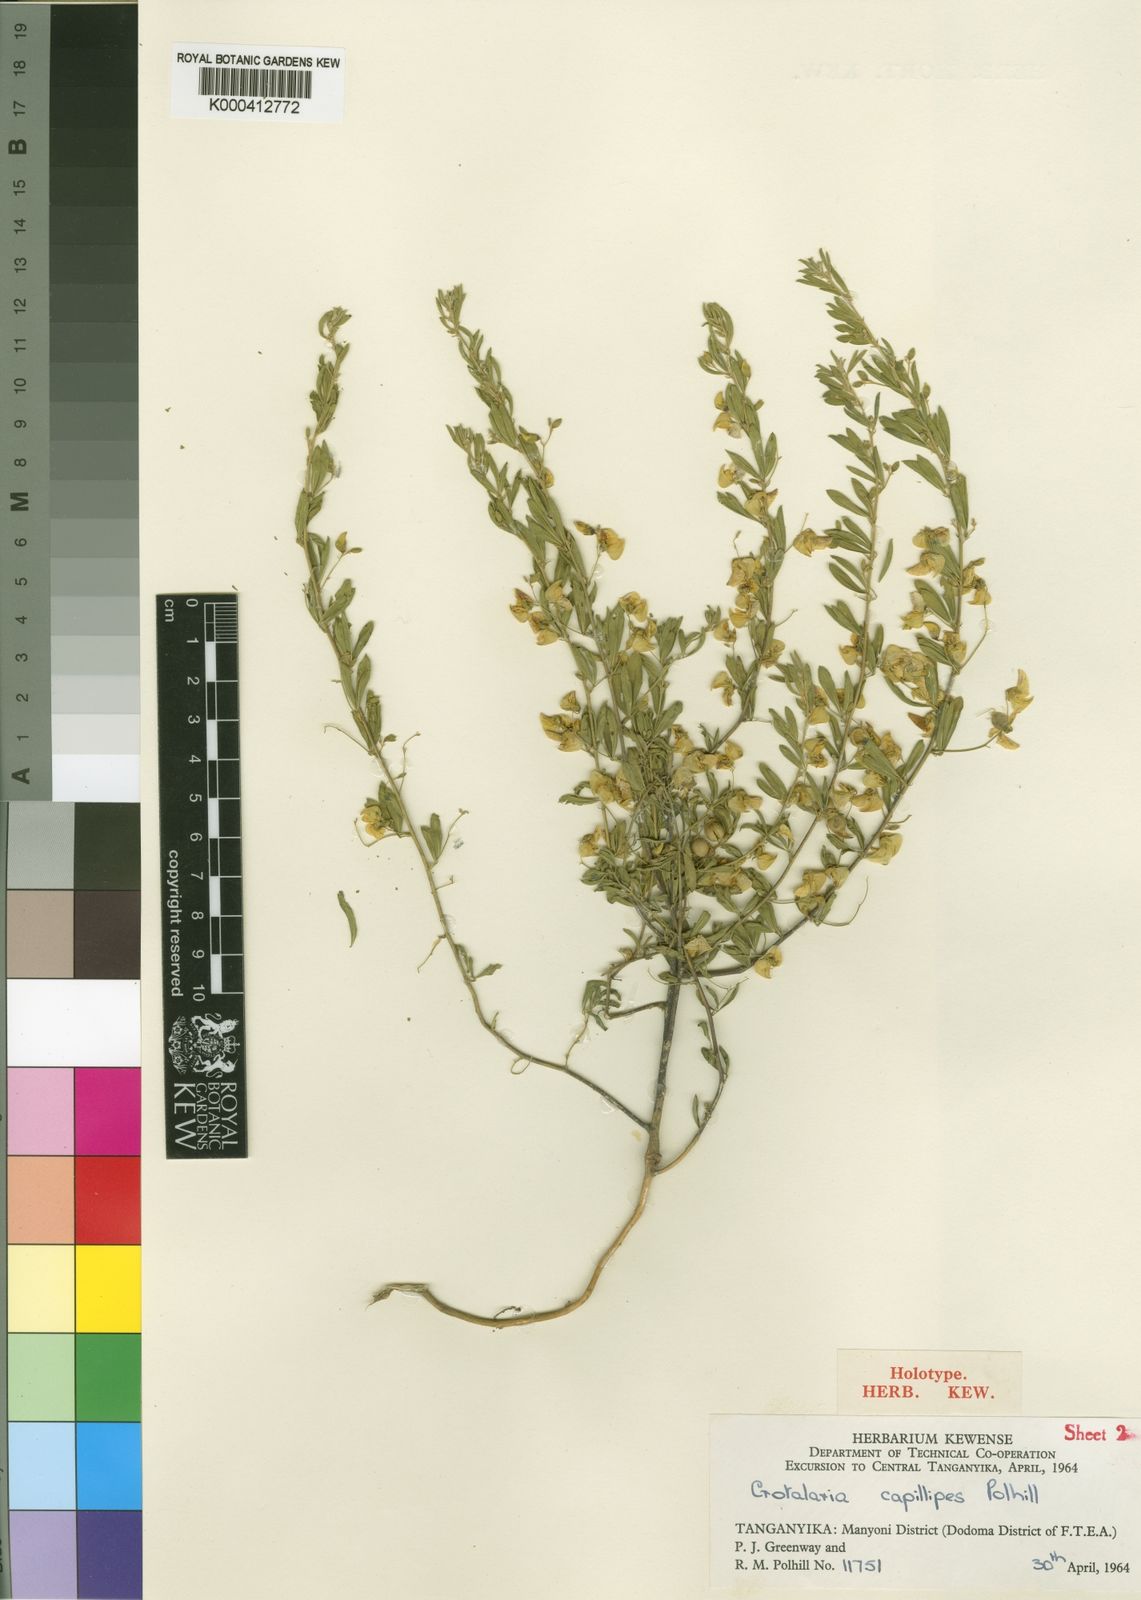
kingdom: Plantae
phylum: Tracheophyta
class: Magnoliopsida
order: Fabales
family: Fabaceae
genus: Crotalaria
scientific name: Crotalaria capillipes
